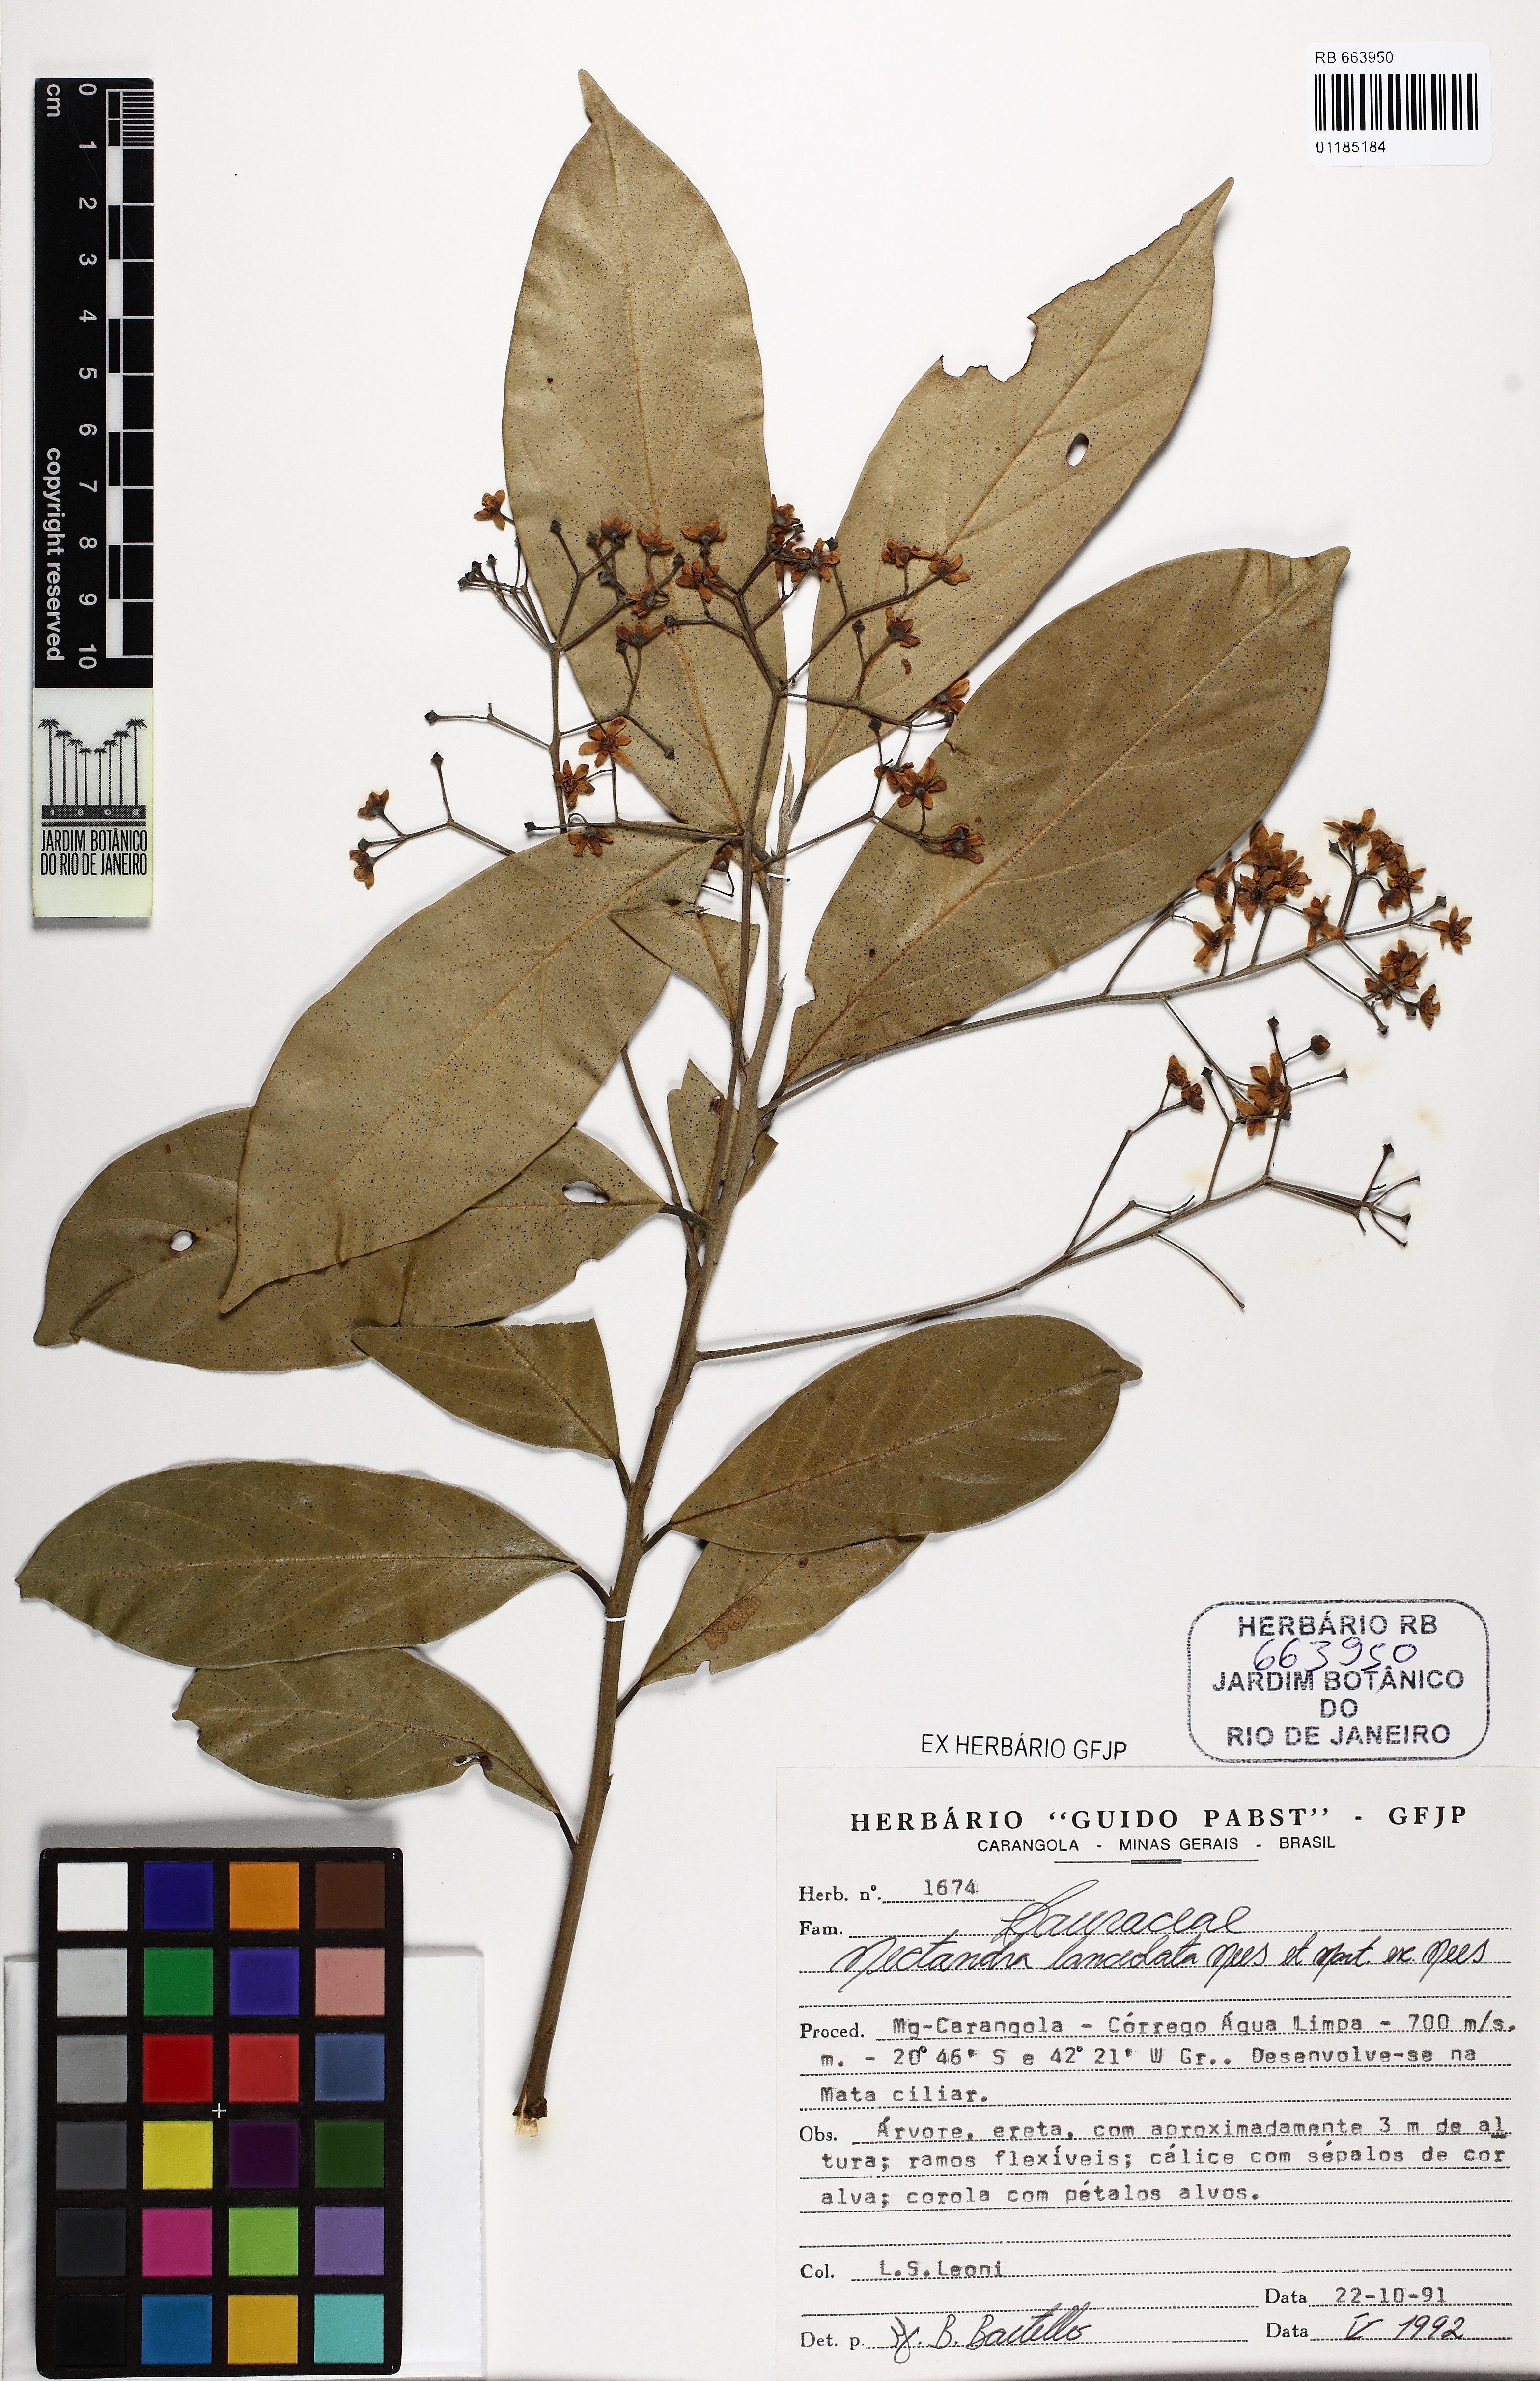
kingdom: Plantae
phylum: Tracheophyta
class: Magnoliopsida
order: Laurales
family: Lauraceae
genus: Nectandra
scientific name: Nectandra lanceolata
